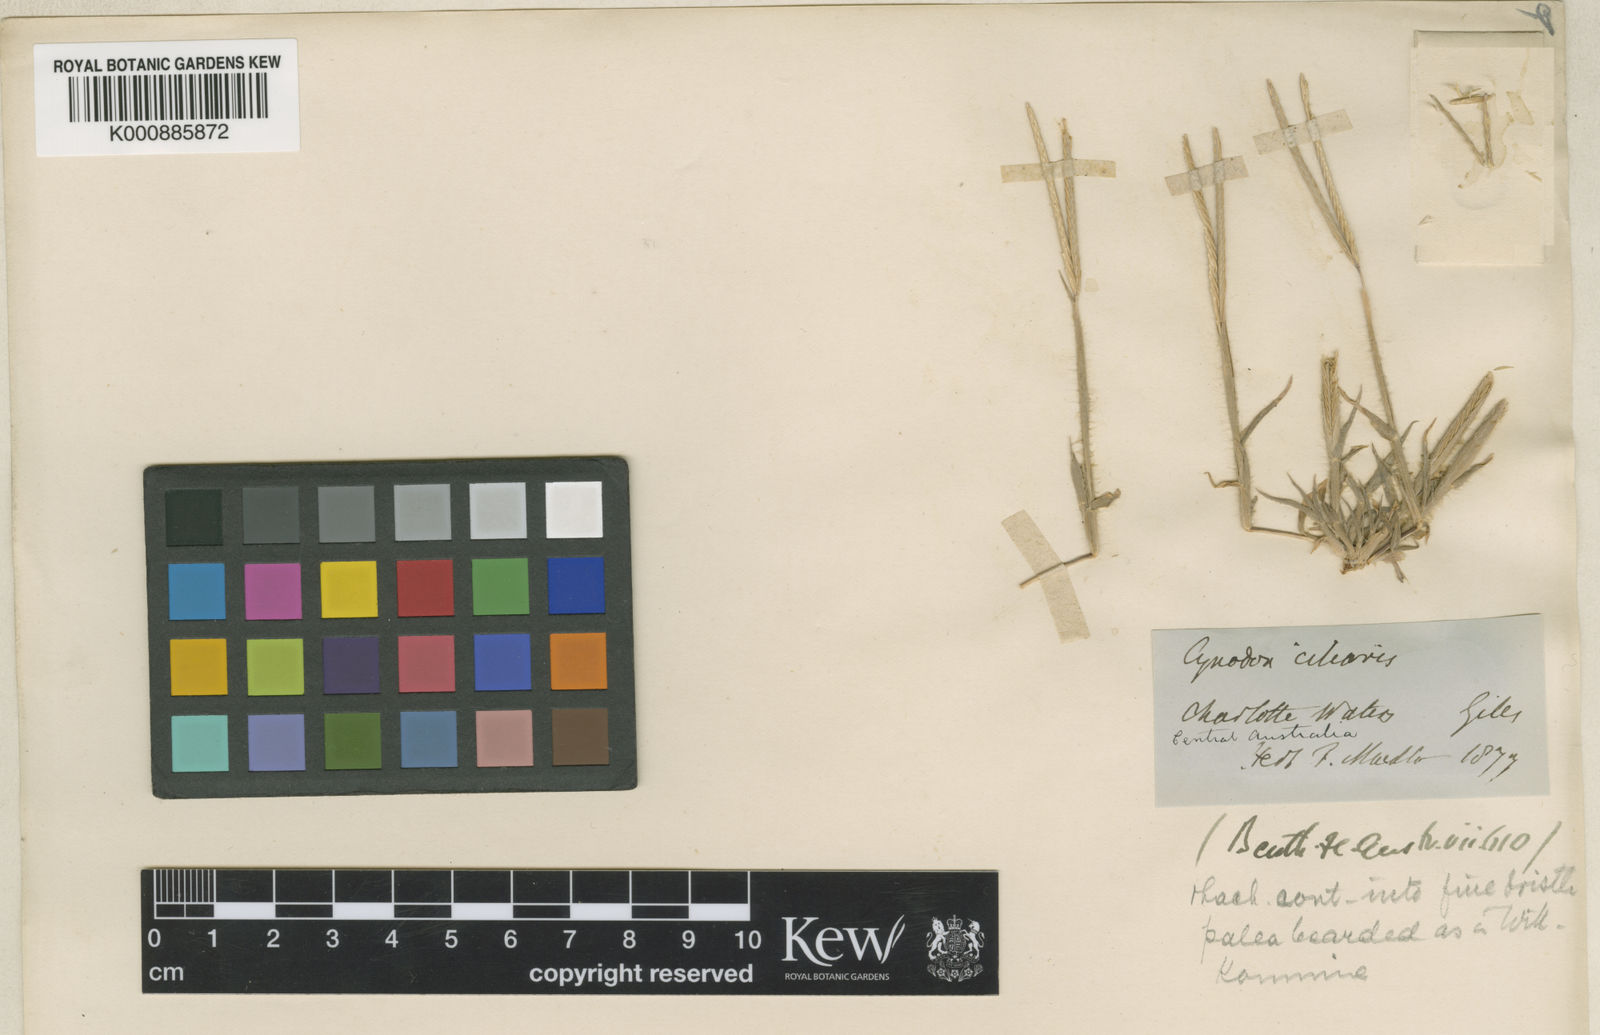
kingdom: Plantae
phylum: Tracheophyta
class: Liliopsida
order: Poales
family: Poaceae
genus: Cynodon
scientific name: Cynodon simonii
